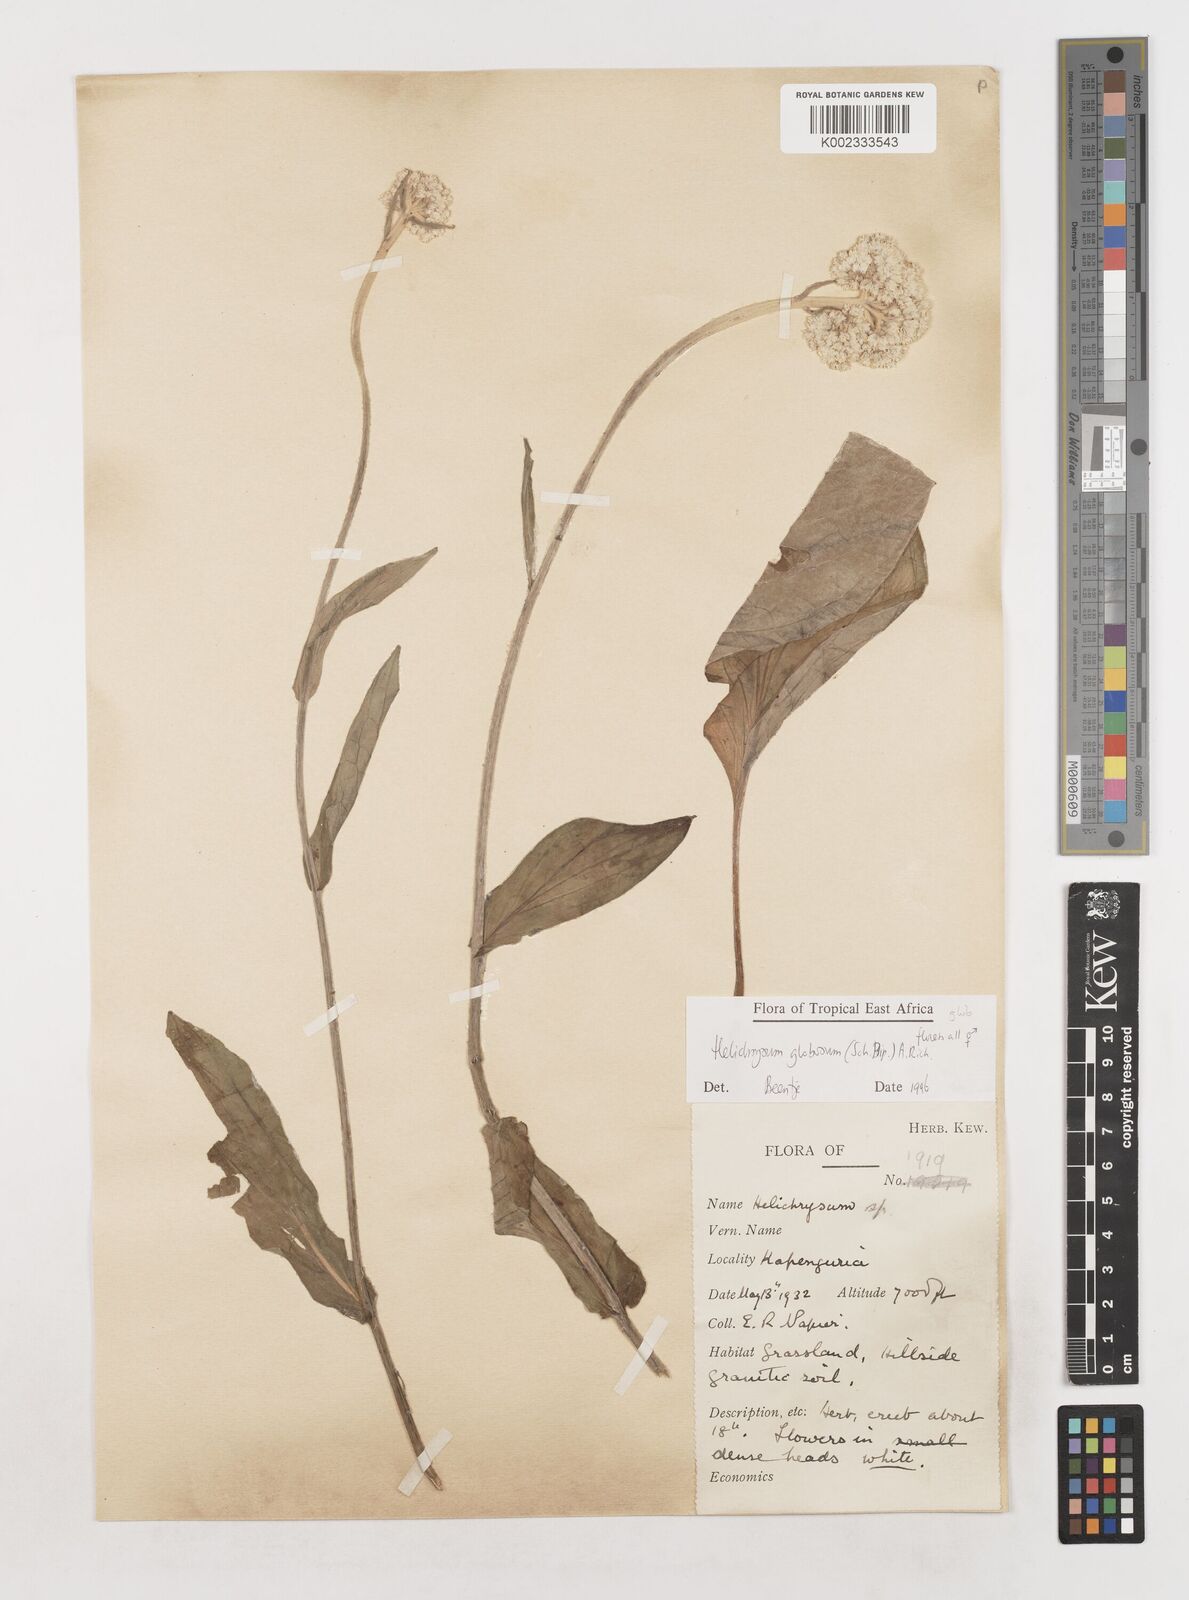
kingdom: Plantae
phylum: Tracheophyta
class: Magnoliopsida
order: Asterales
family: Asteraceae
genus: Helichrysum
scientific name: Helichrysum globosum
